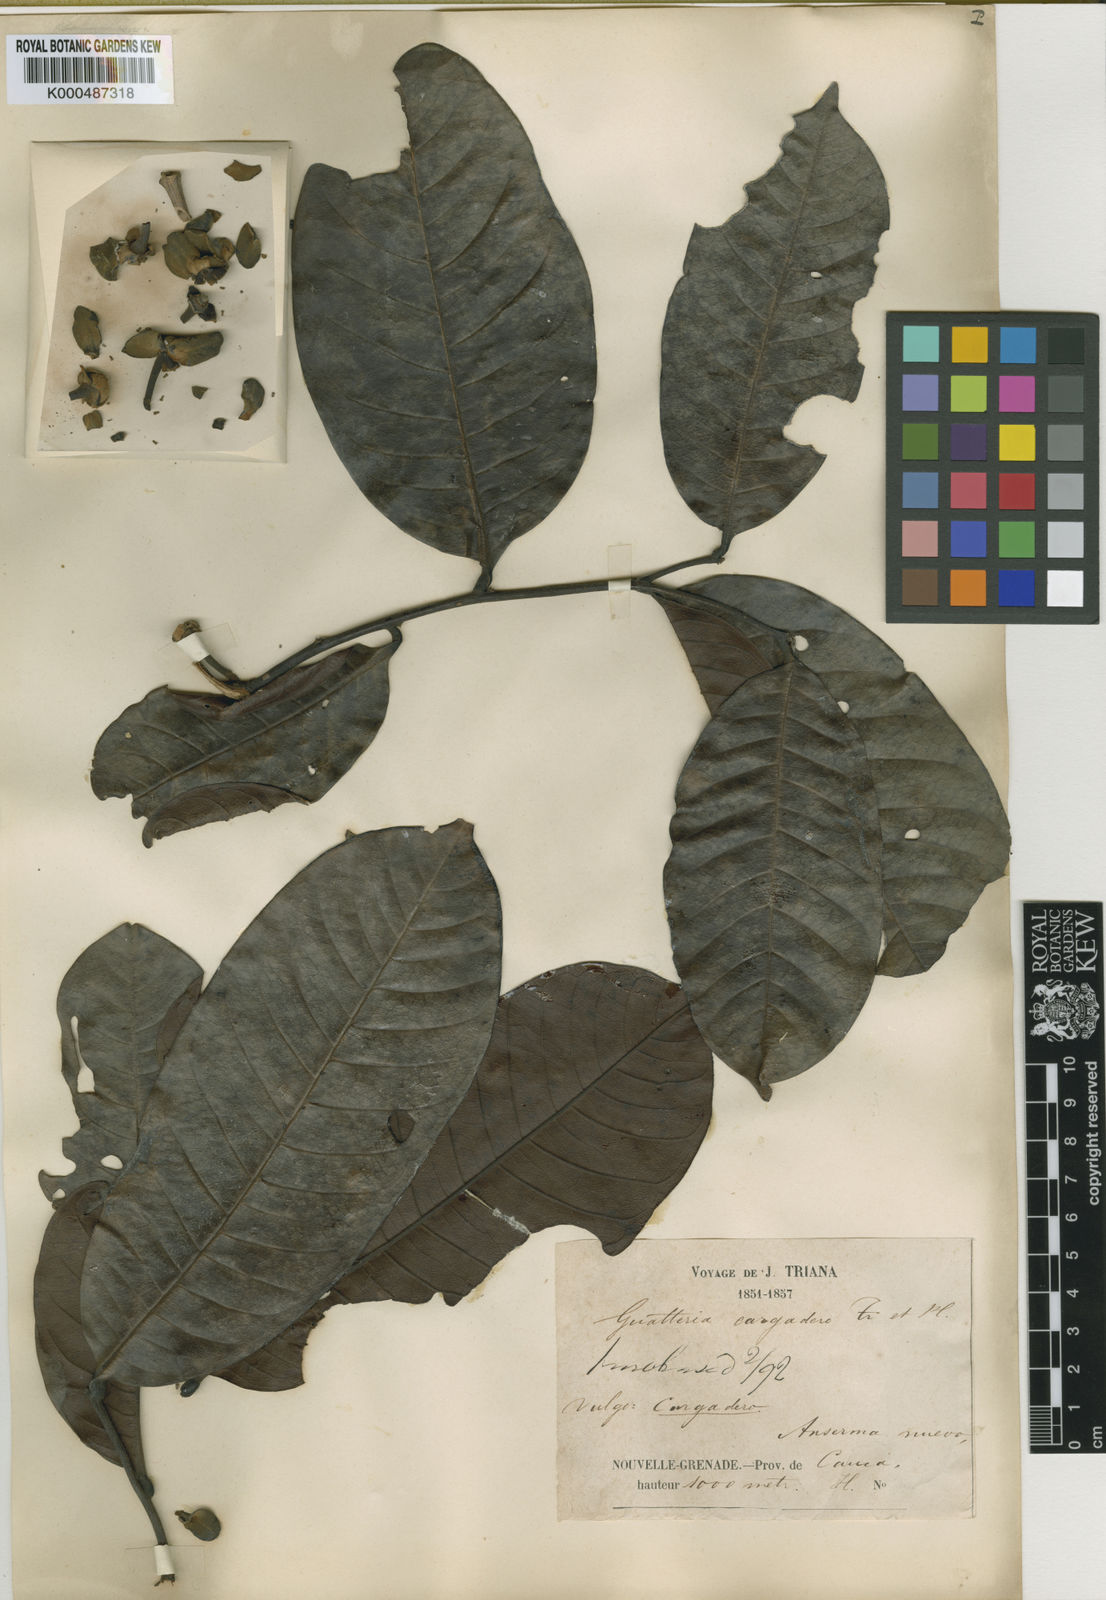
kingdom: Plantae
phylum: Tracheophyta
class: Magnoliopsida
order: Magnoliales
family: Annonaceae
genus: Guatteria
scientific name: Guatteria punctata
